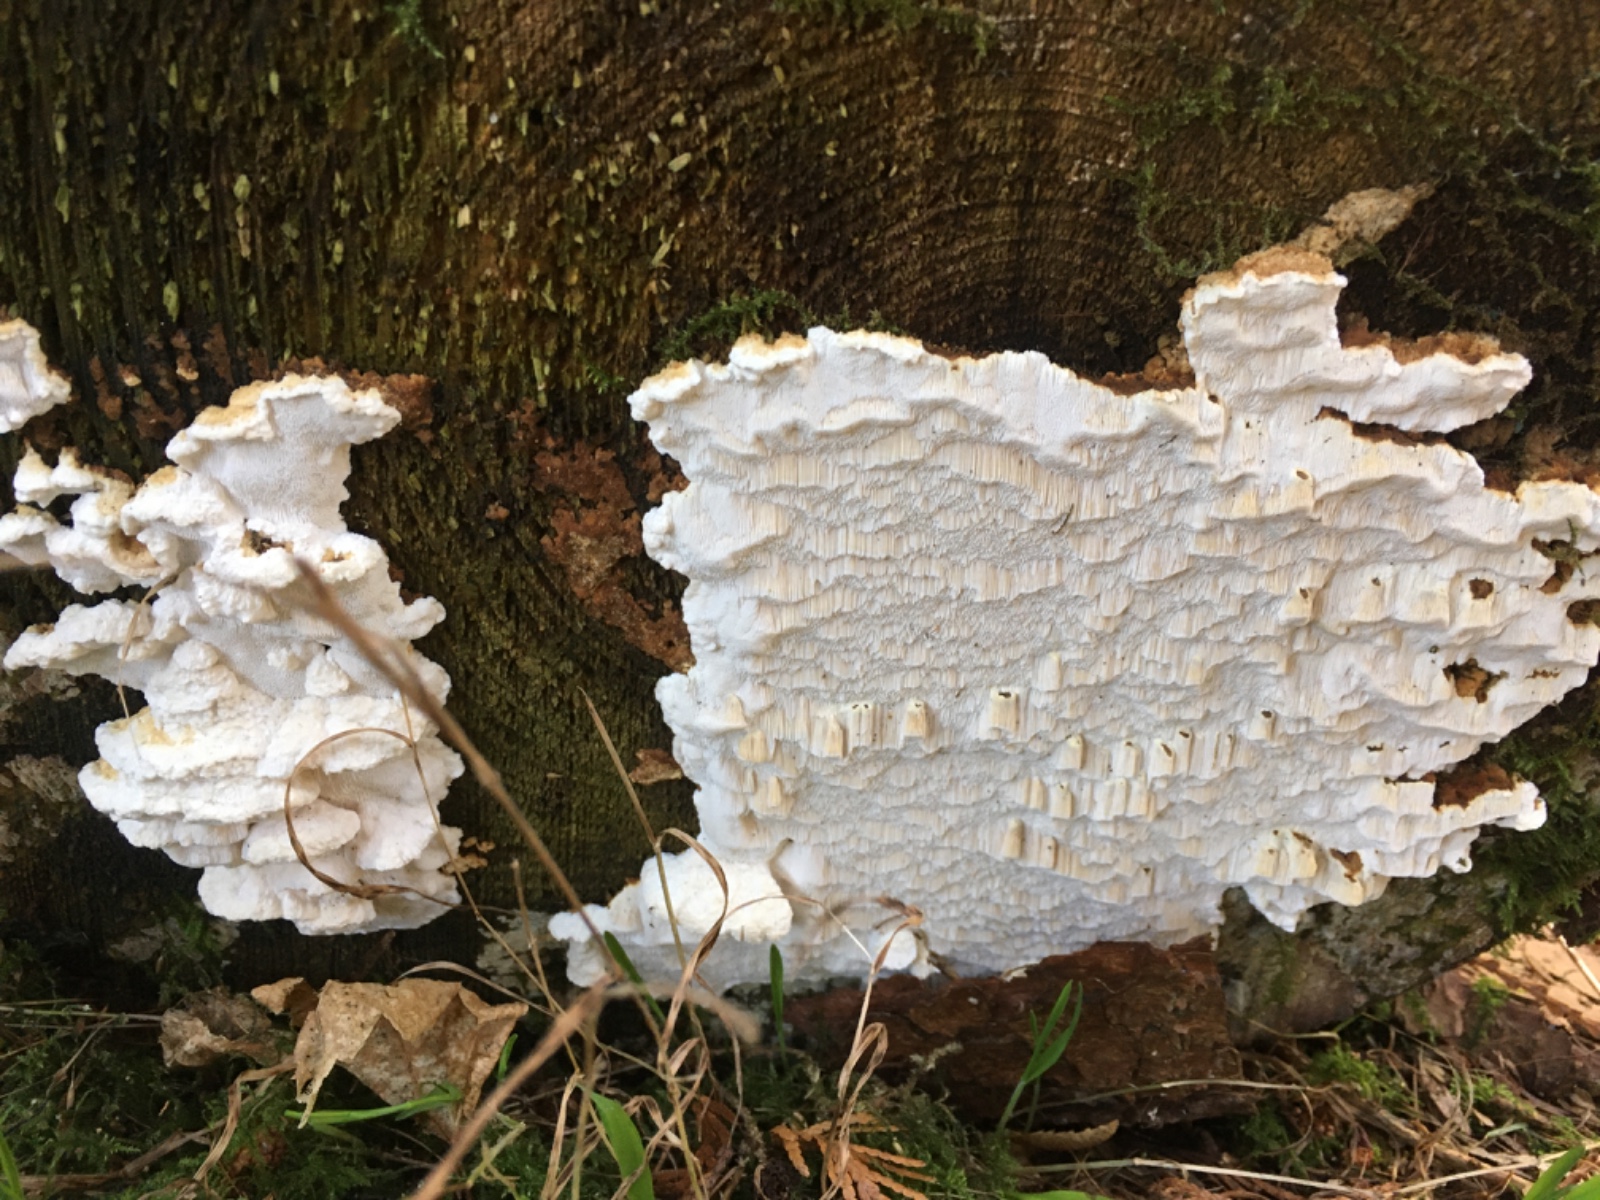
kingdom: Fungi
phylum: Basidiomycota
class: Agaricomycetes
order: Polyporales
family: Fomitopsidaceae
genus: Neoantrodia
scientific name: Neoantrodia serialis
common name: række-sejporesvamp
